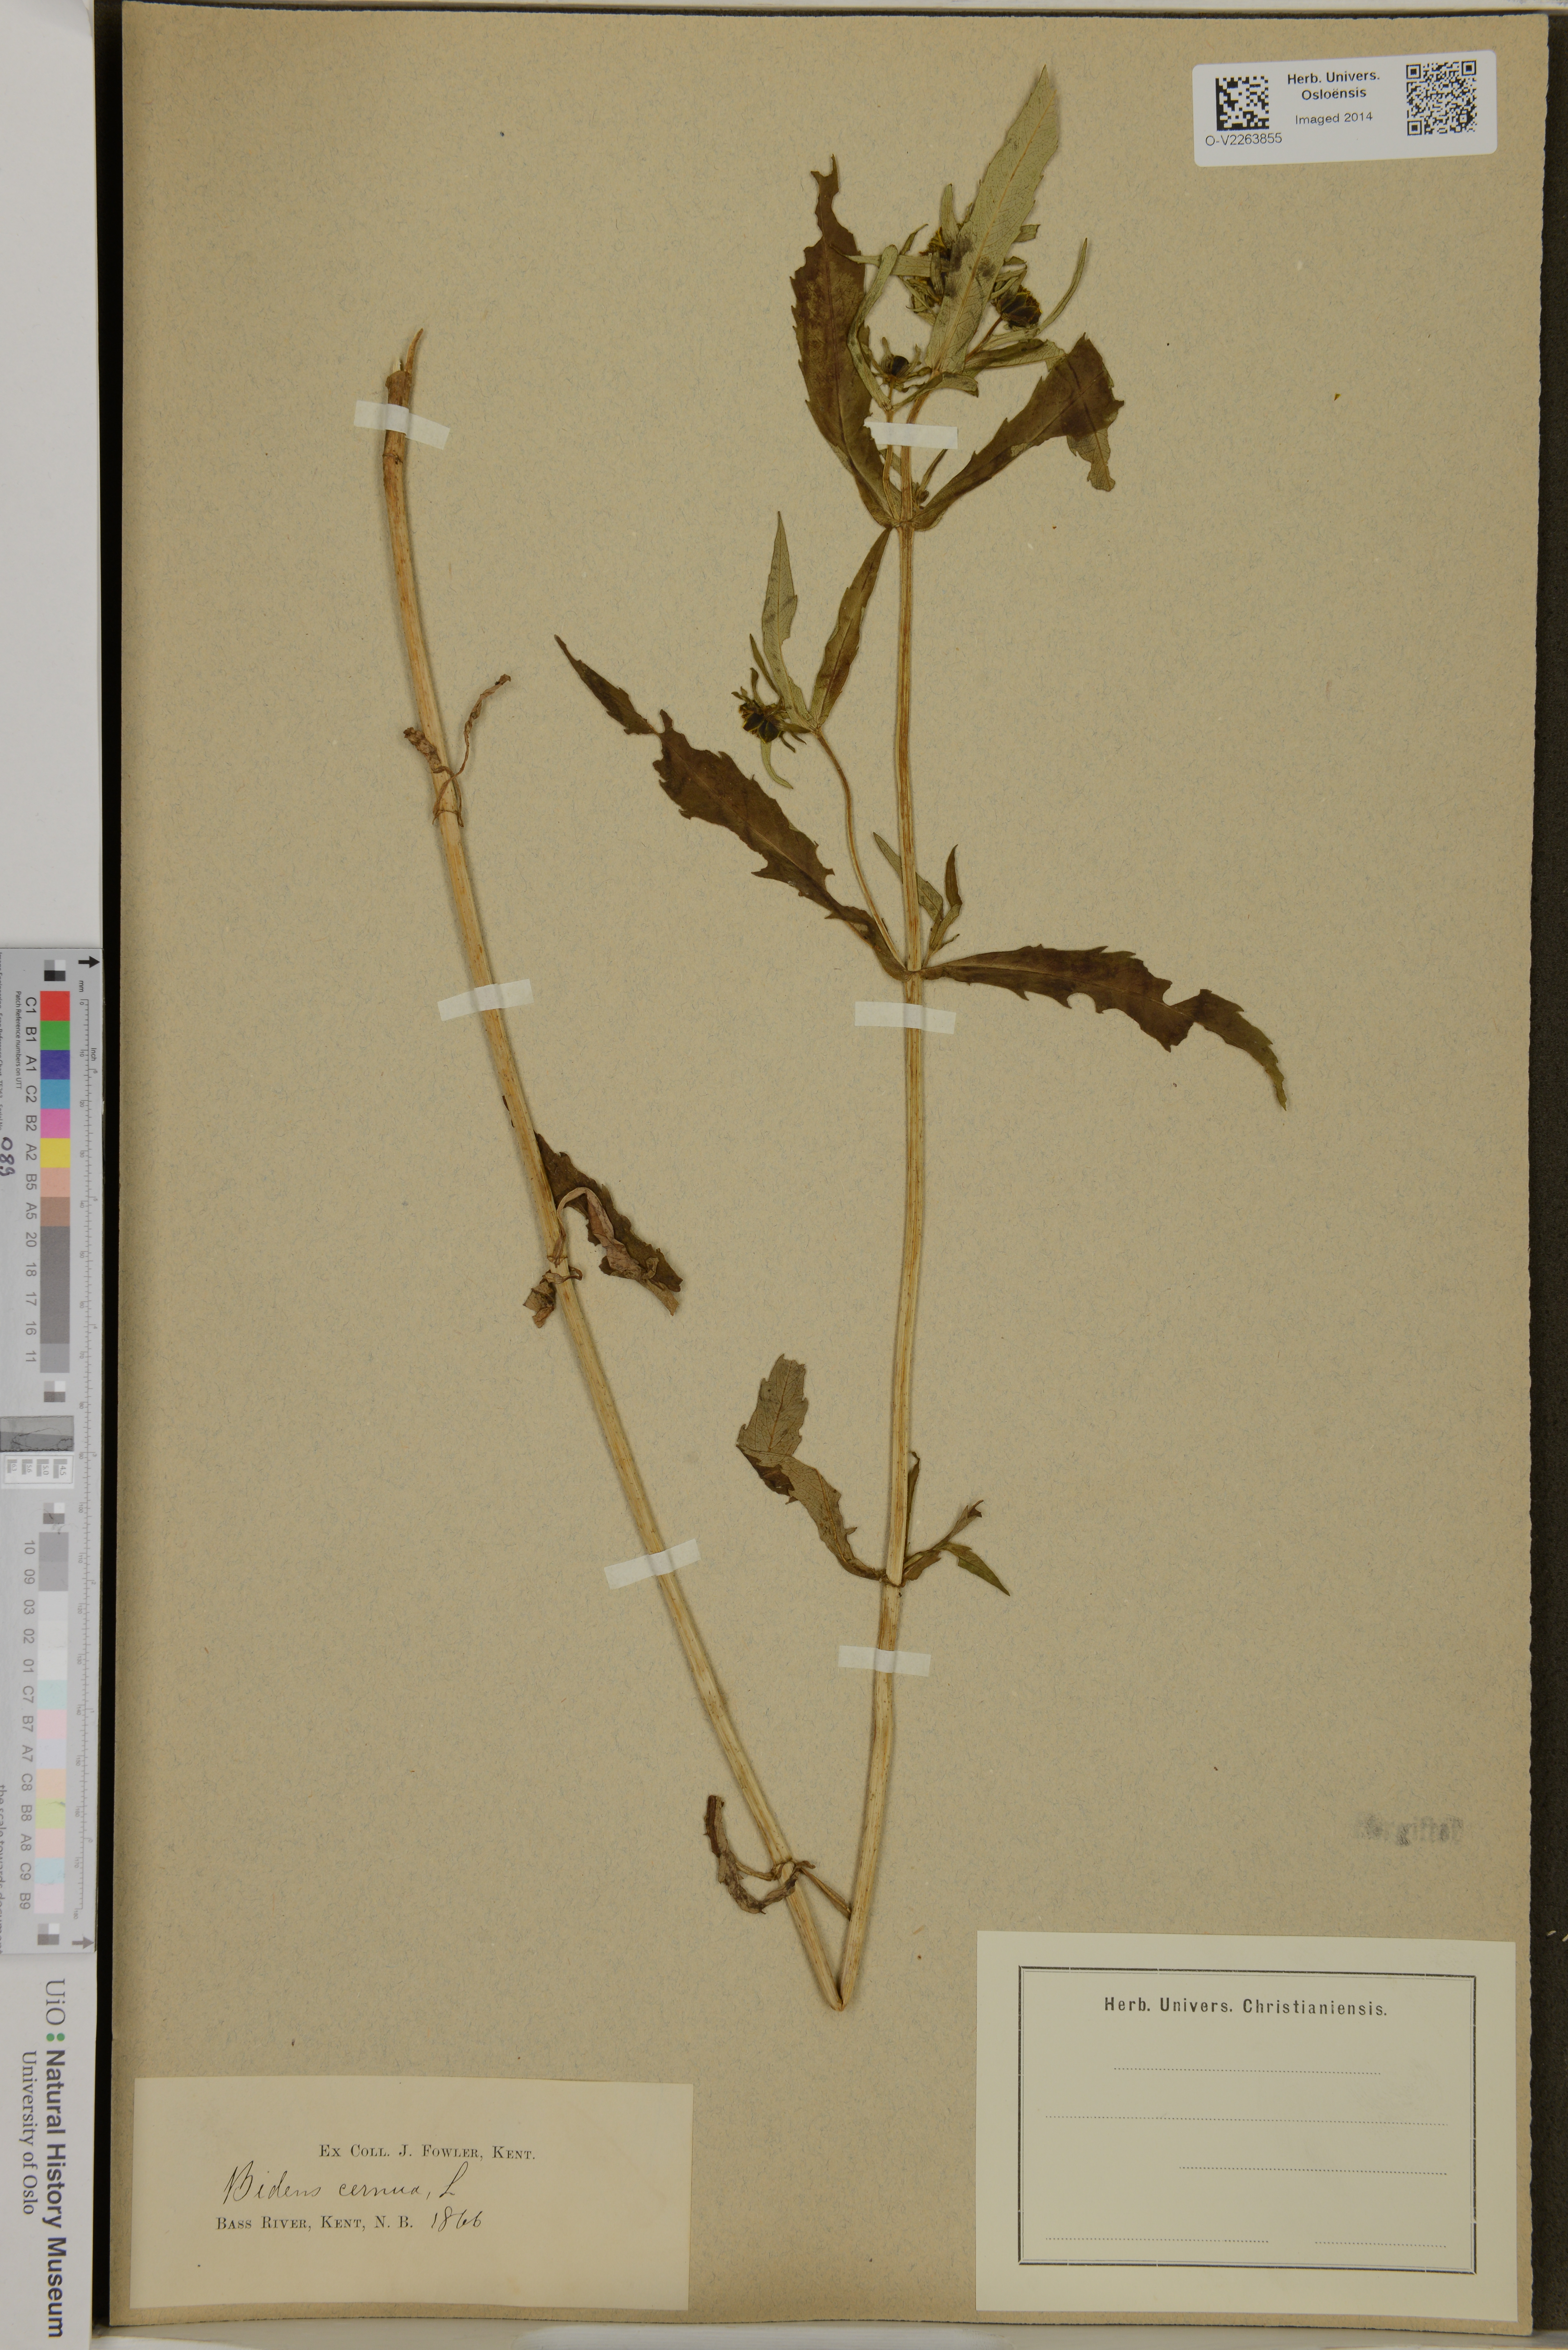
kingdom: Plantae
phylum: Tracheophyta
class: Magnoliopsida
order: Asterales
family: Asteraceae
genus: Bidens
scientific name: Bidens cernua
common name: Nodding bur-marigold
